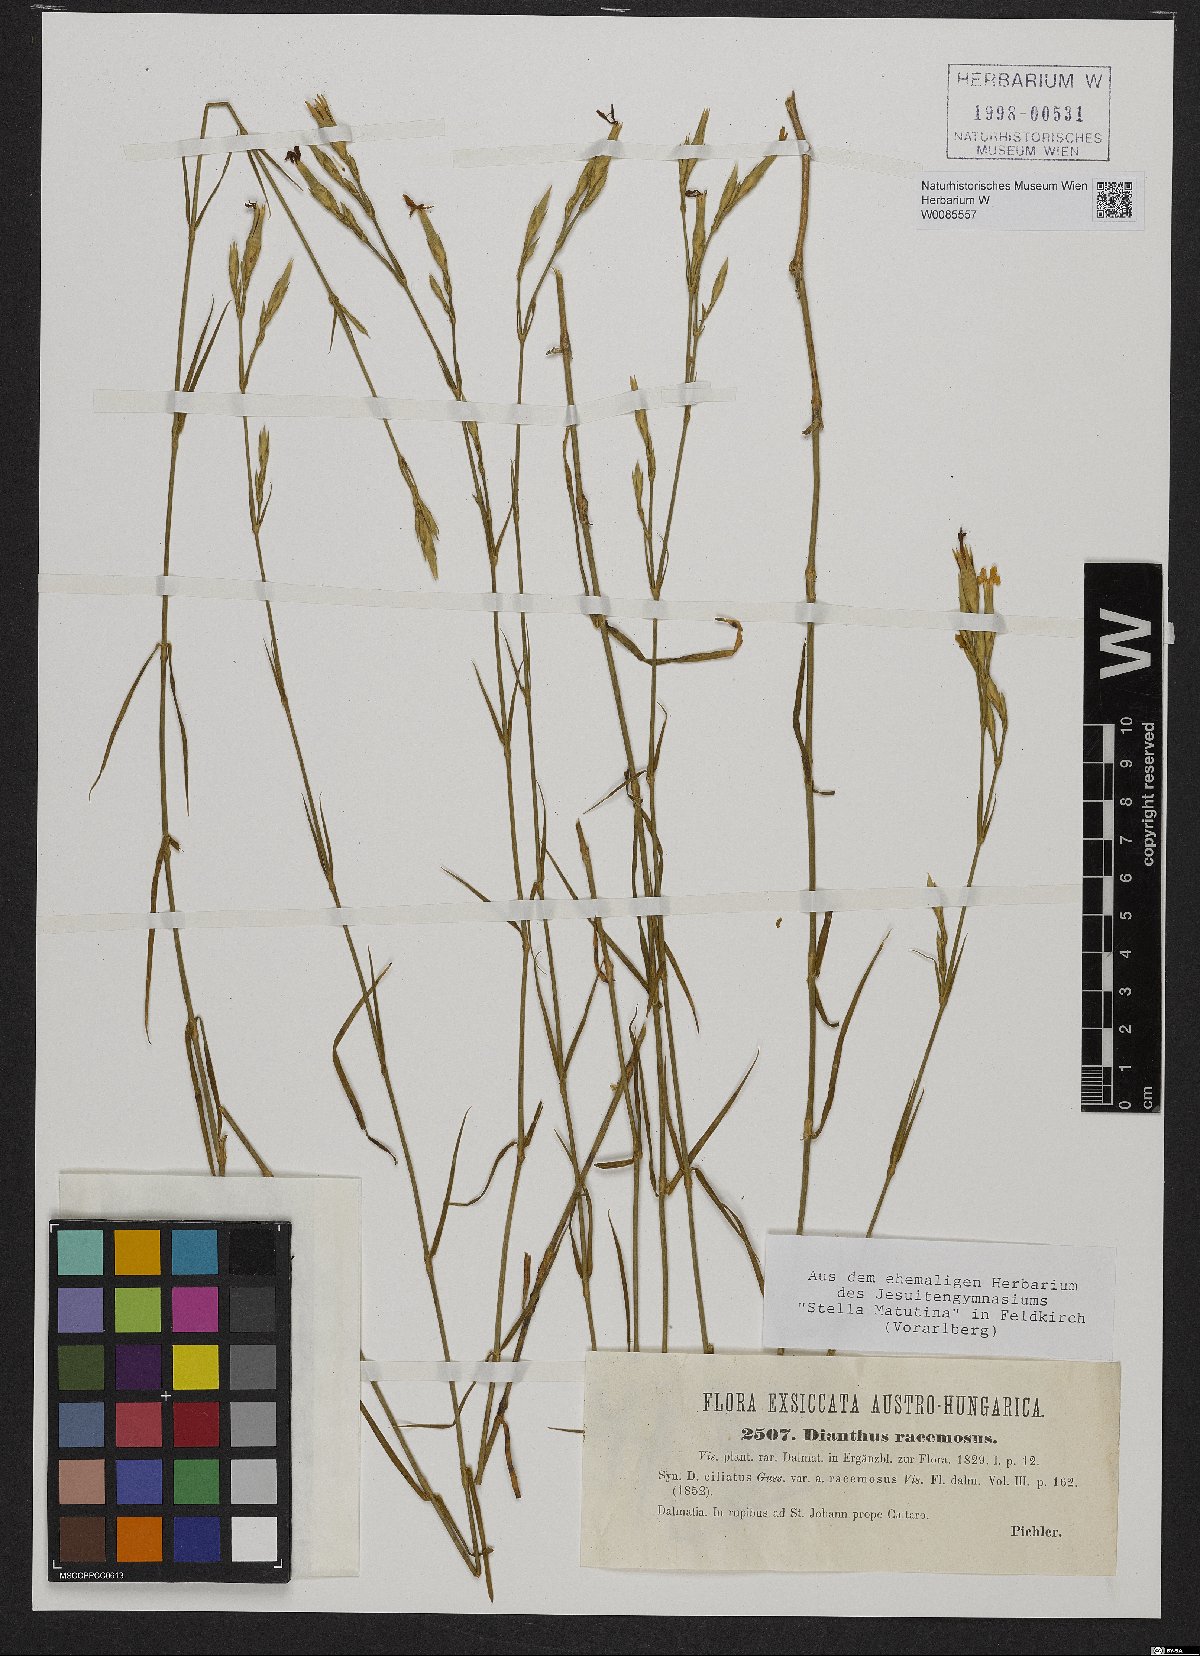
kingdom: Plantae
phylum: Tracheophyta
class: Magnoliopsida
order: Caryophyllales
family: Caryophyllaceae
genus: Dianthus
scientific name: Dianthus ciliatus
